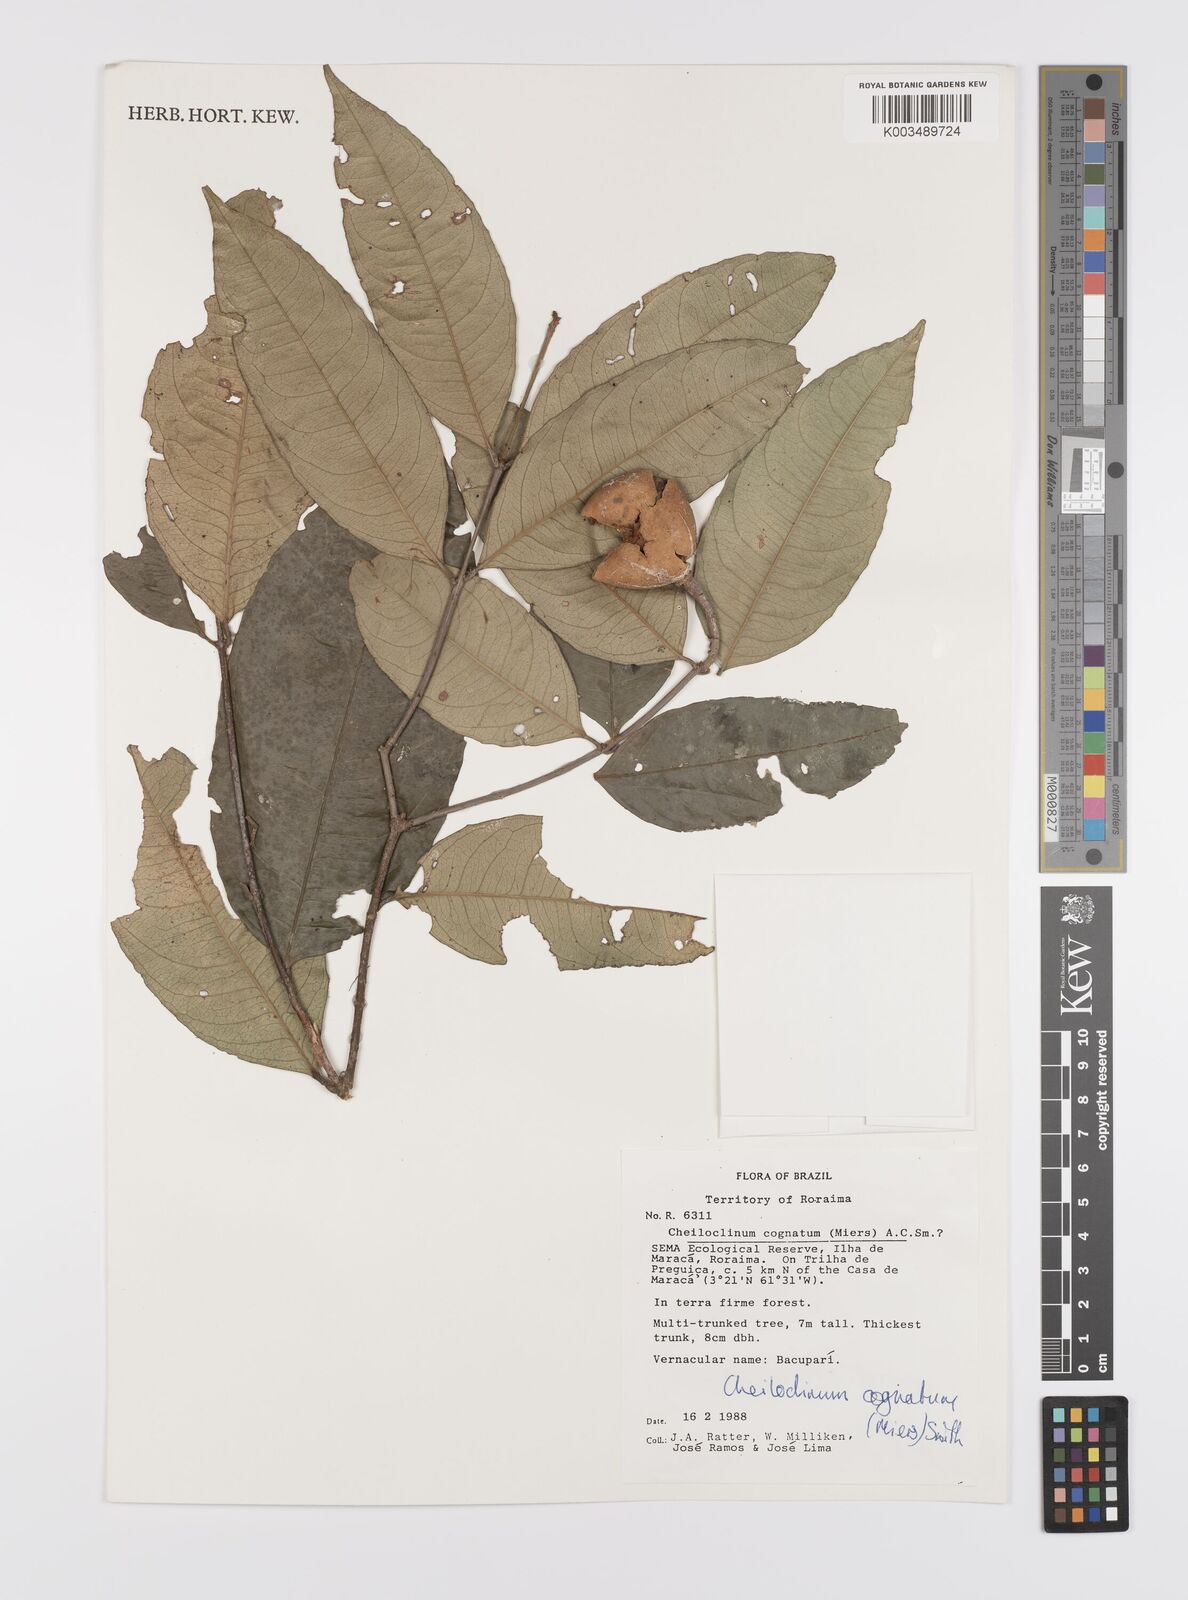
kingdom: Plantae
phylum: Tracheophyta
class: Magnoliopsida
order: Celastrales
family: Celastraceae
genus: Cheiloclinium
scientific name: Cheiloclinium cognatum
